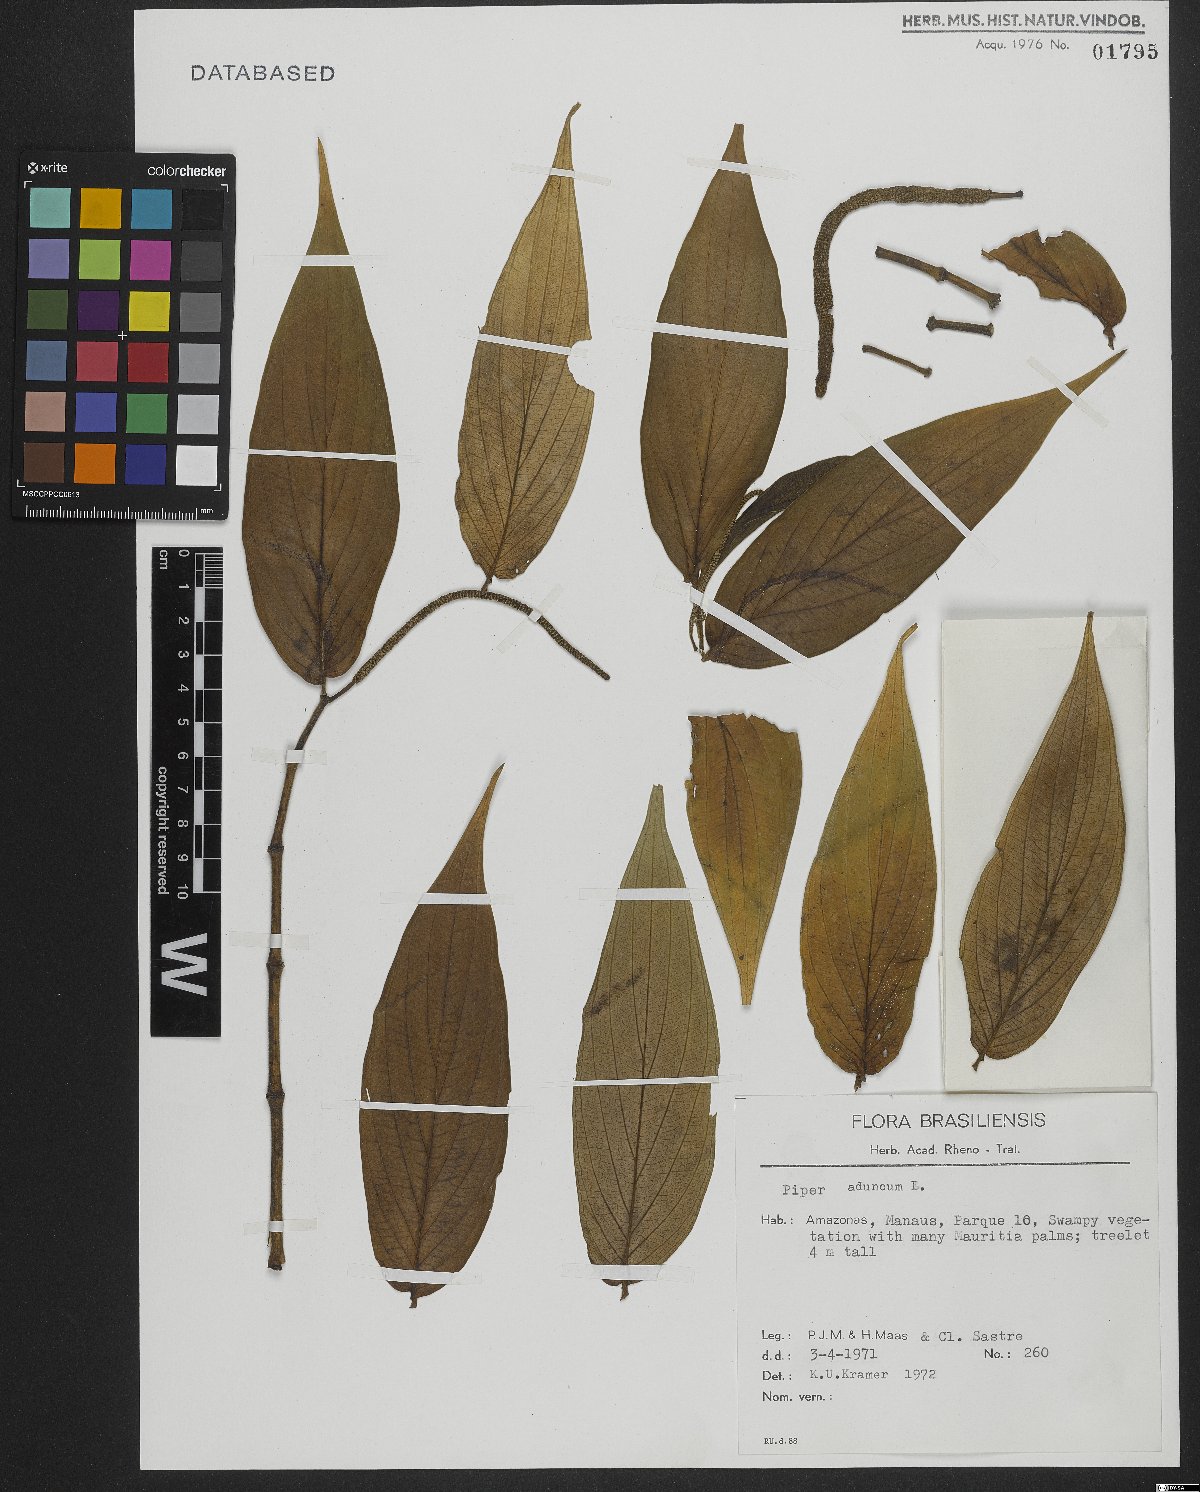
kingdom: Plantae
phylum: Tracheophyta
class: Magnoliopsida
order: Piperales
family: Piperaceae
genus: Piper
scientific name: Piper aduncum
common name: Spiked pepper
